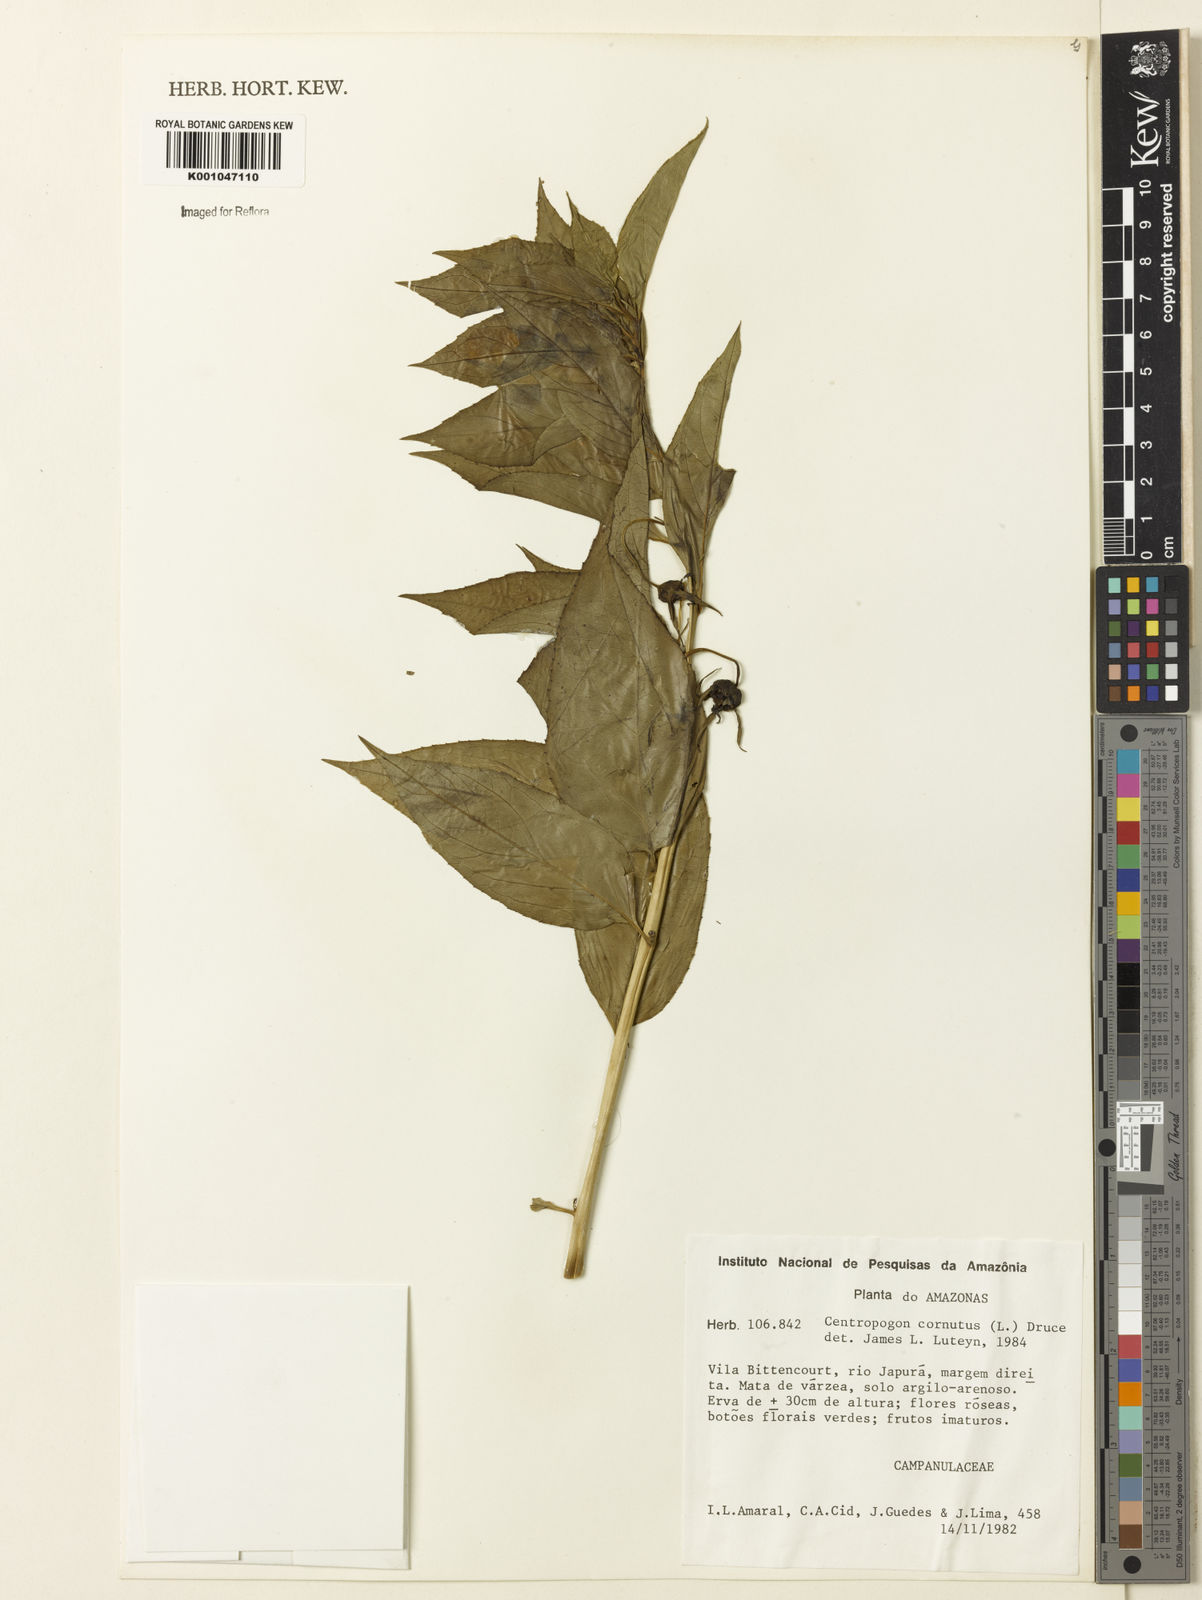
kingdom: Plantae
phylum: Tracheophyta
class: Magnoliopsida
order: Asterales
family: Campanulaceae
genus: Centropogon
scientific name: Centropogon cornutus
